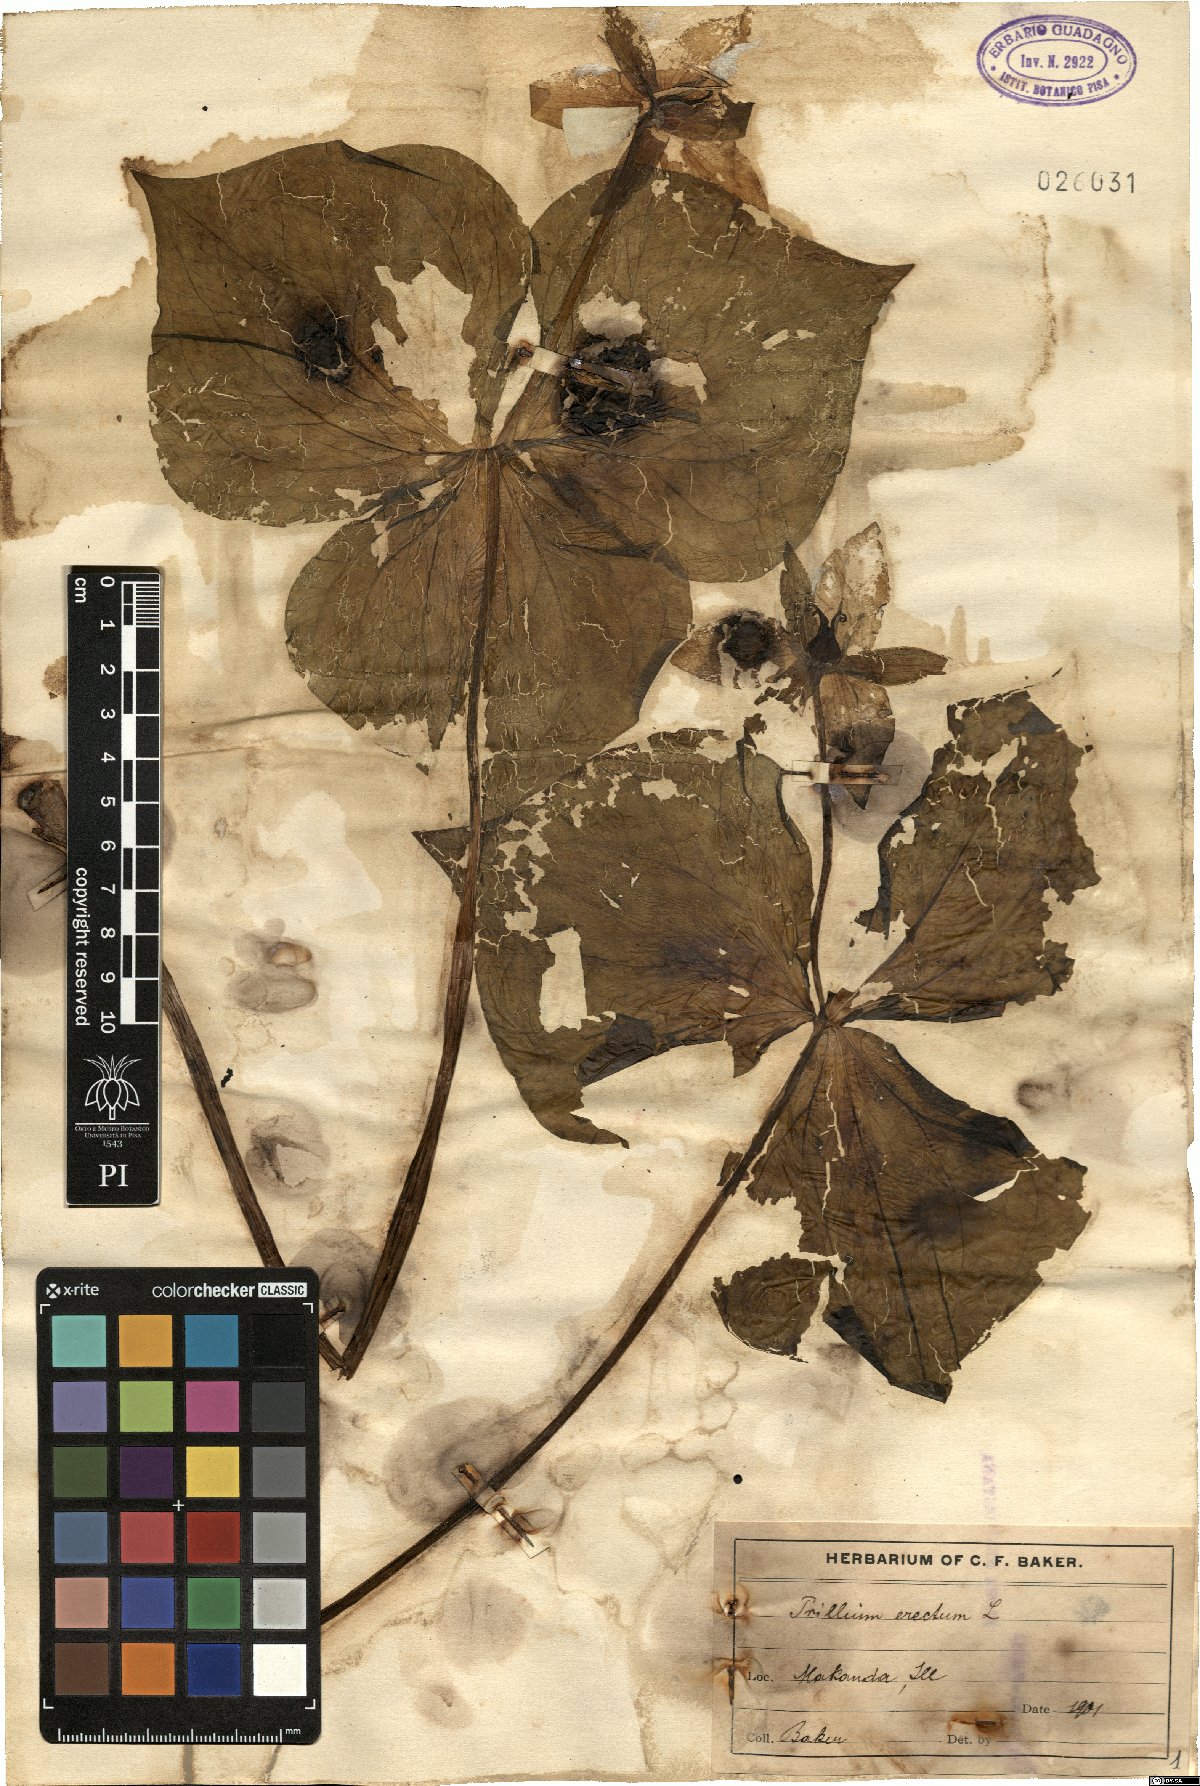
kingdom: Plantae
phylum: Tracheophyta
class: Liliopsida
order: Liliales
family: Melanthiaceae
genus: Trillium
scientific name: Trillium erectum
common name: Purple trillium
